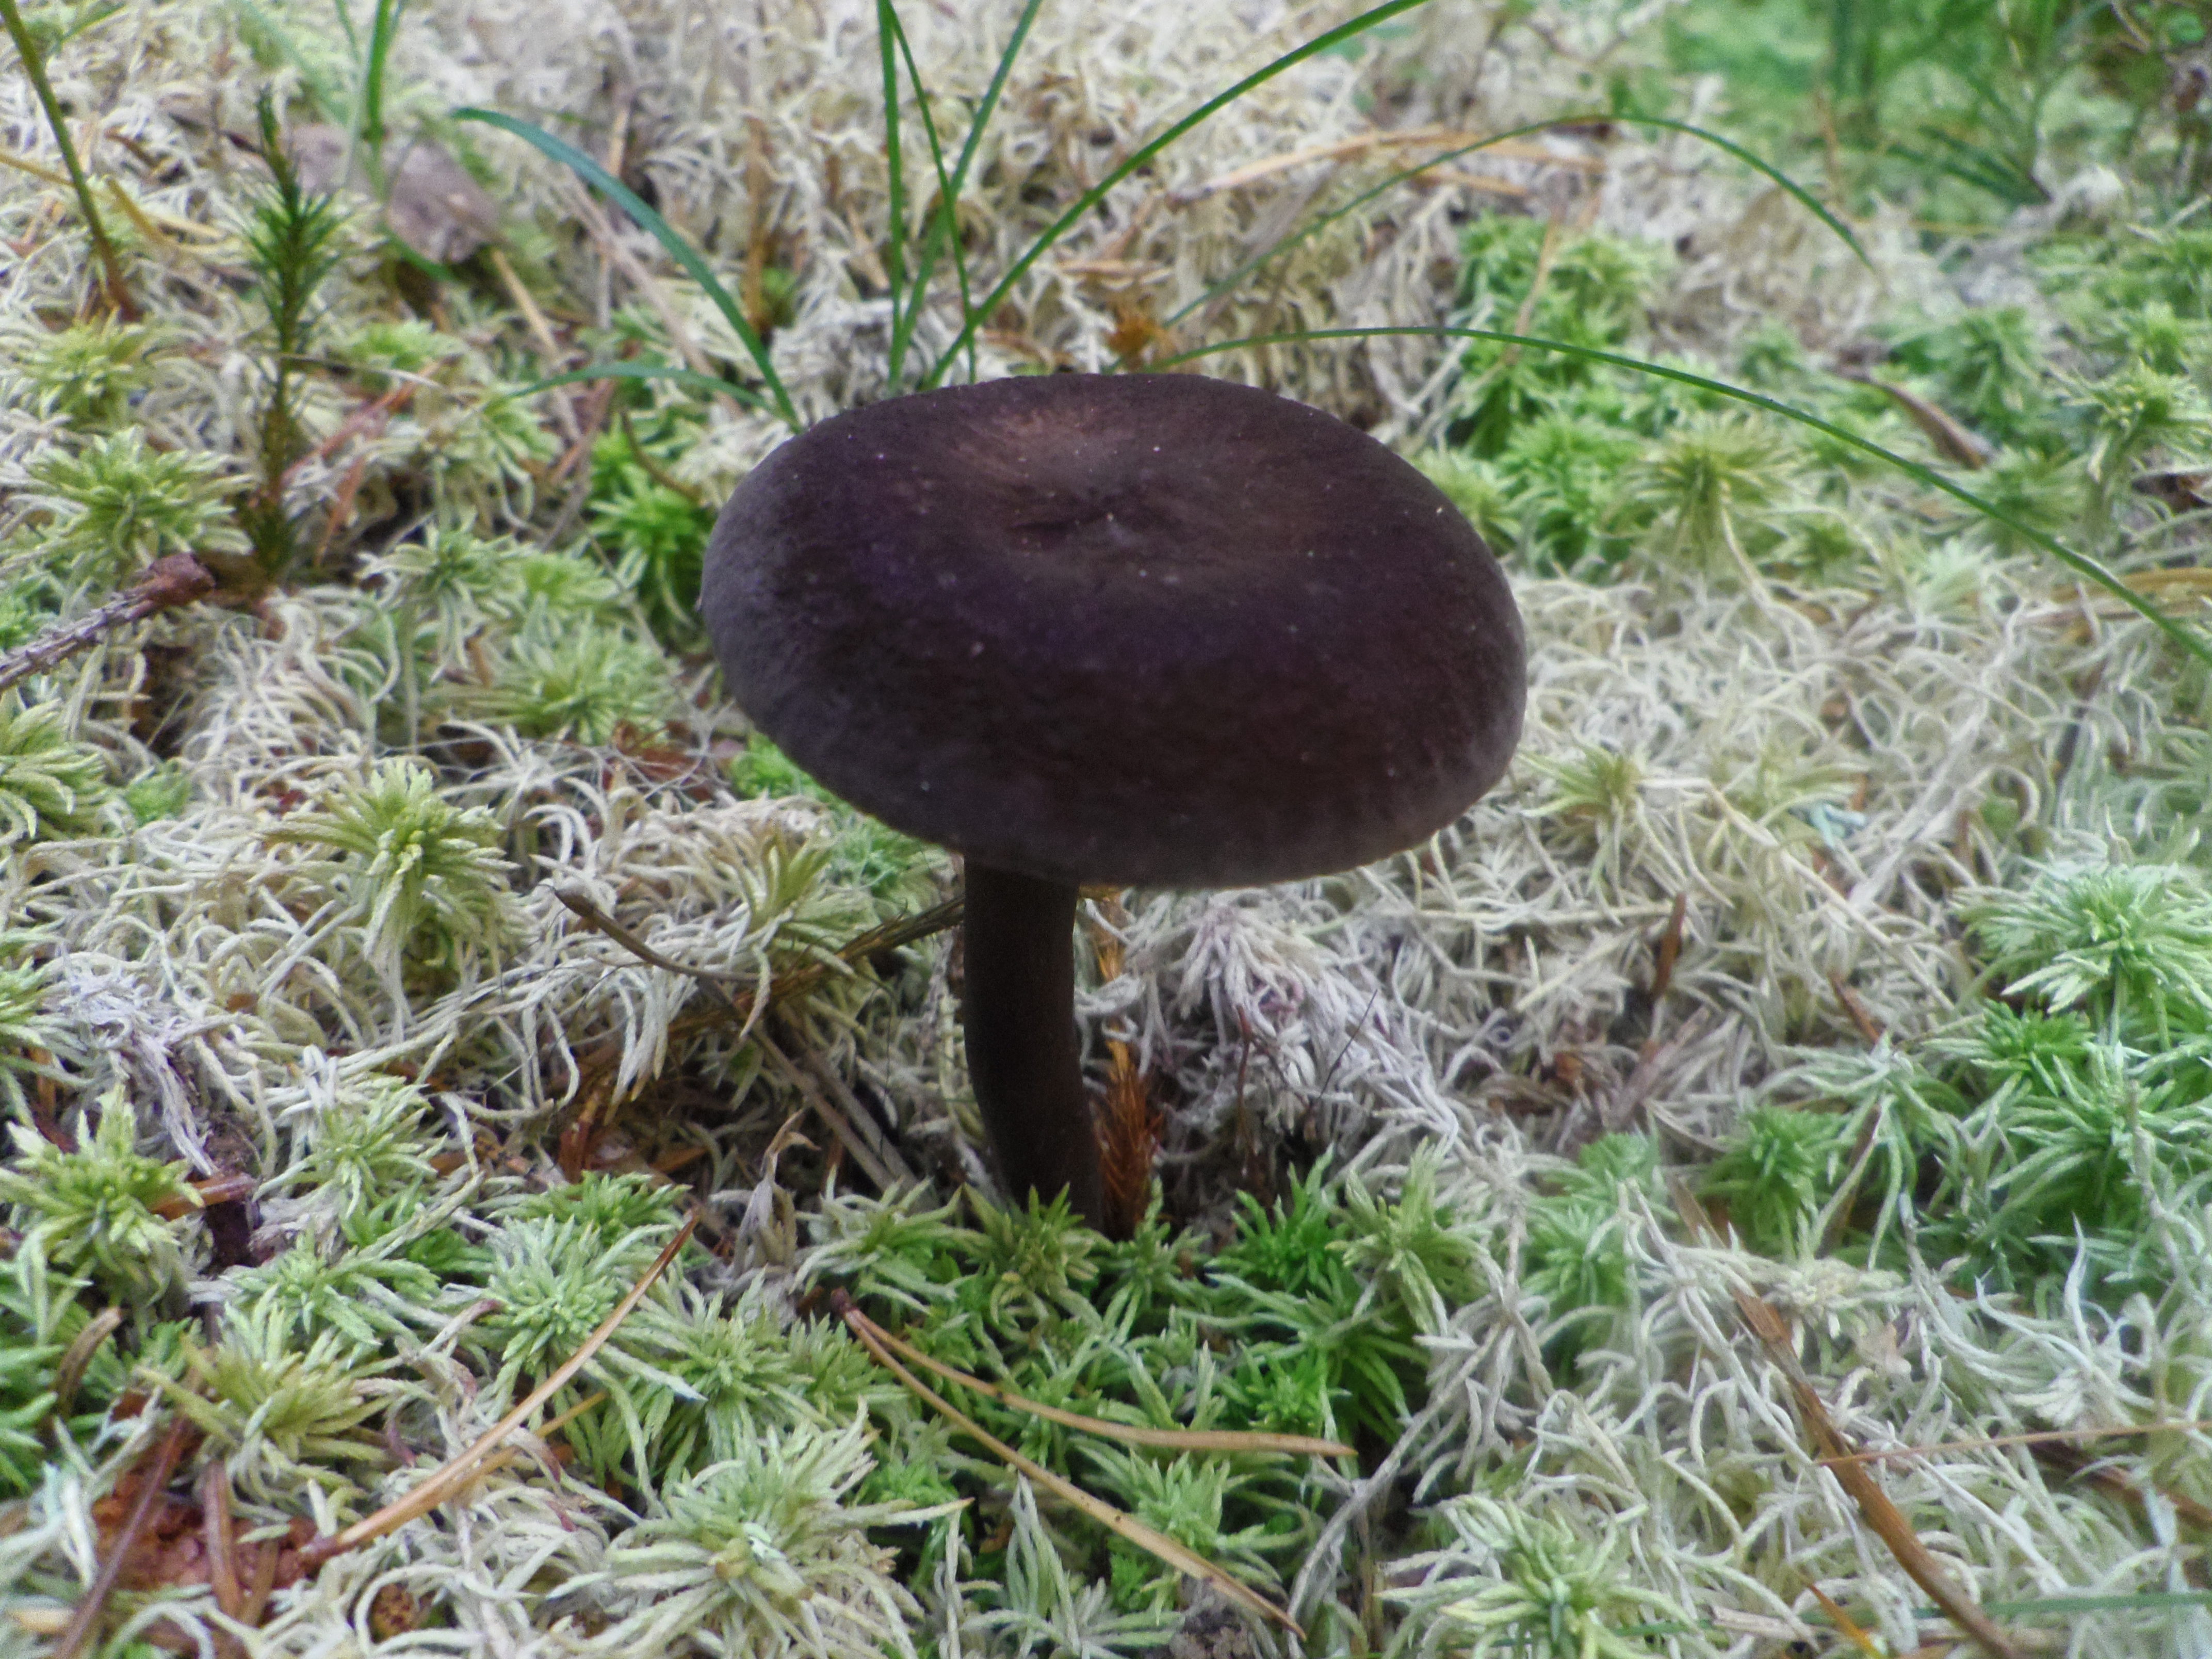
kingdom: Fungi
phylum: Basidiomycota
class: Agaricomycetes
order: Russulales
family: Russulaceae
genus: Lactarius
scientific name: Lactarius lignyotus
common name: Velvet milkcap
